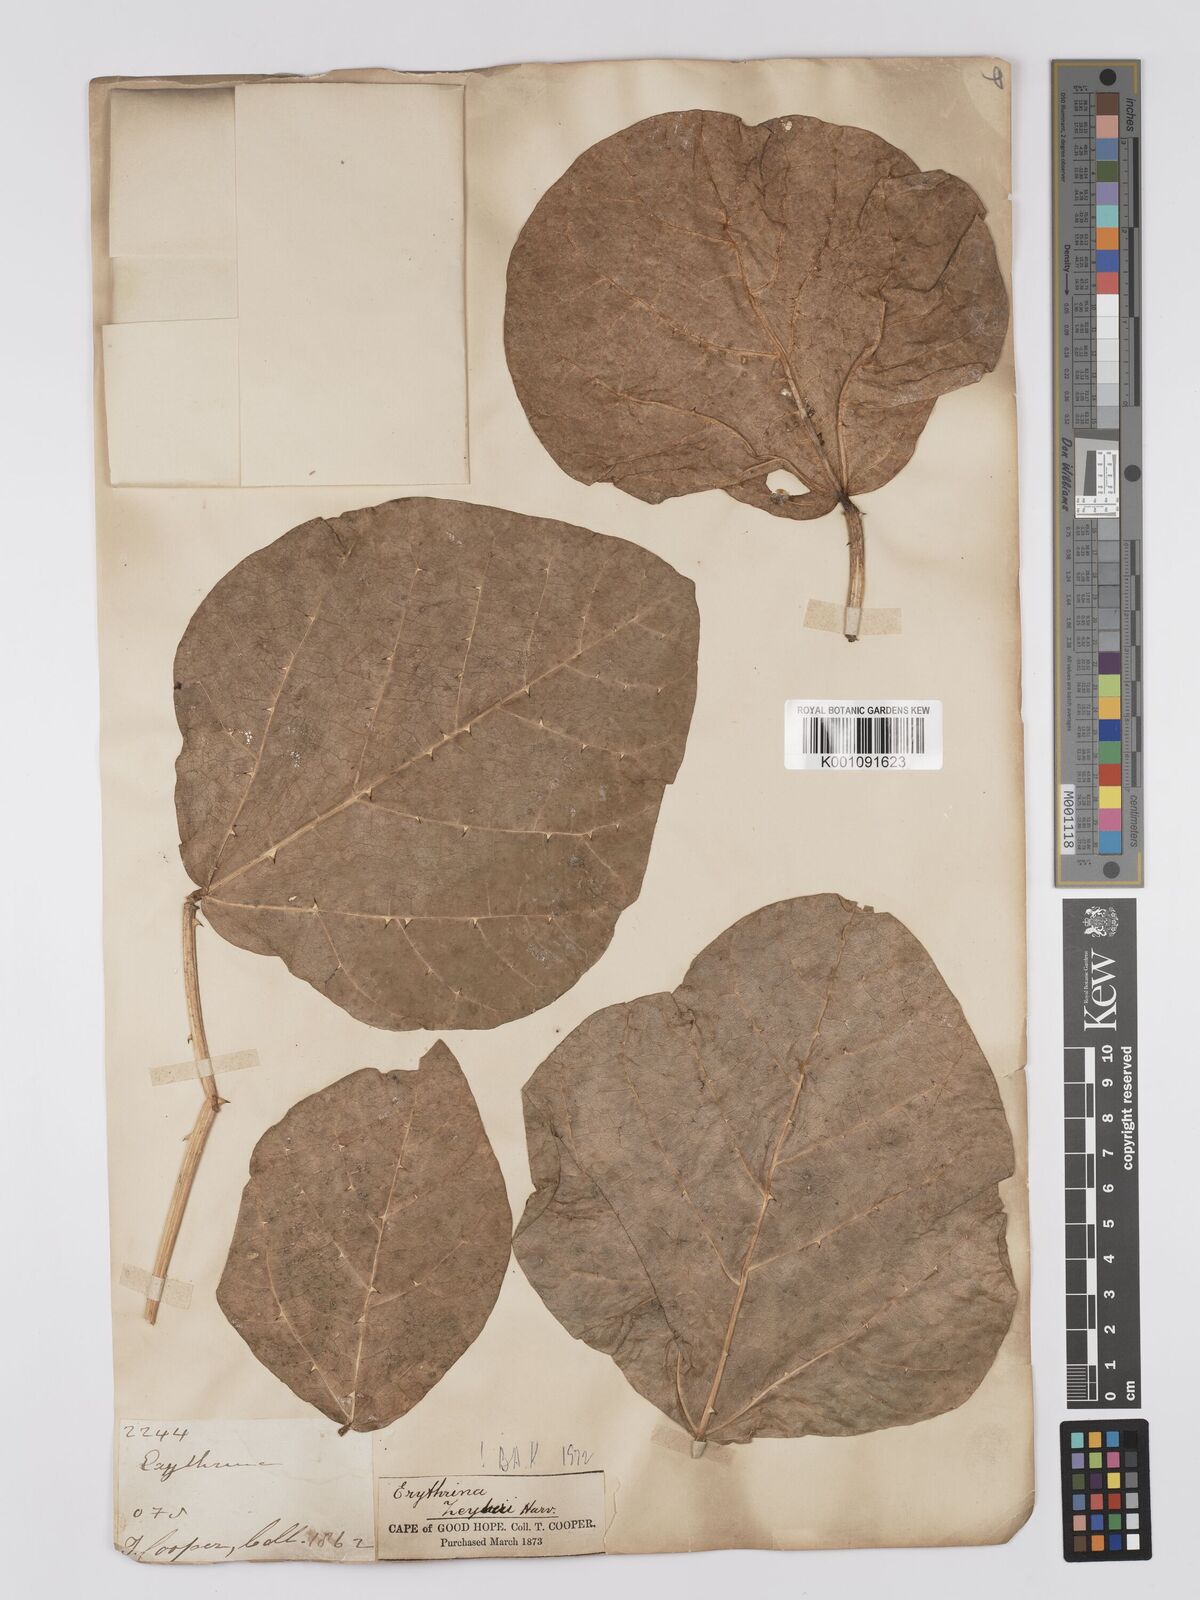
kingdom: Plantae
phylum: Tracheophyta
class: Magnoliopsida
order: Fabales
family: Fabaceae
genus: Erythrina
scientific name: Erythrina zeyheri
